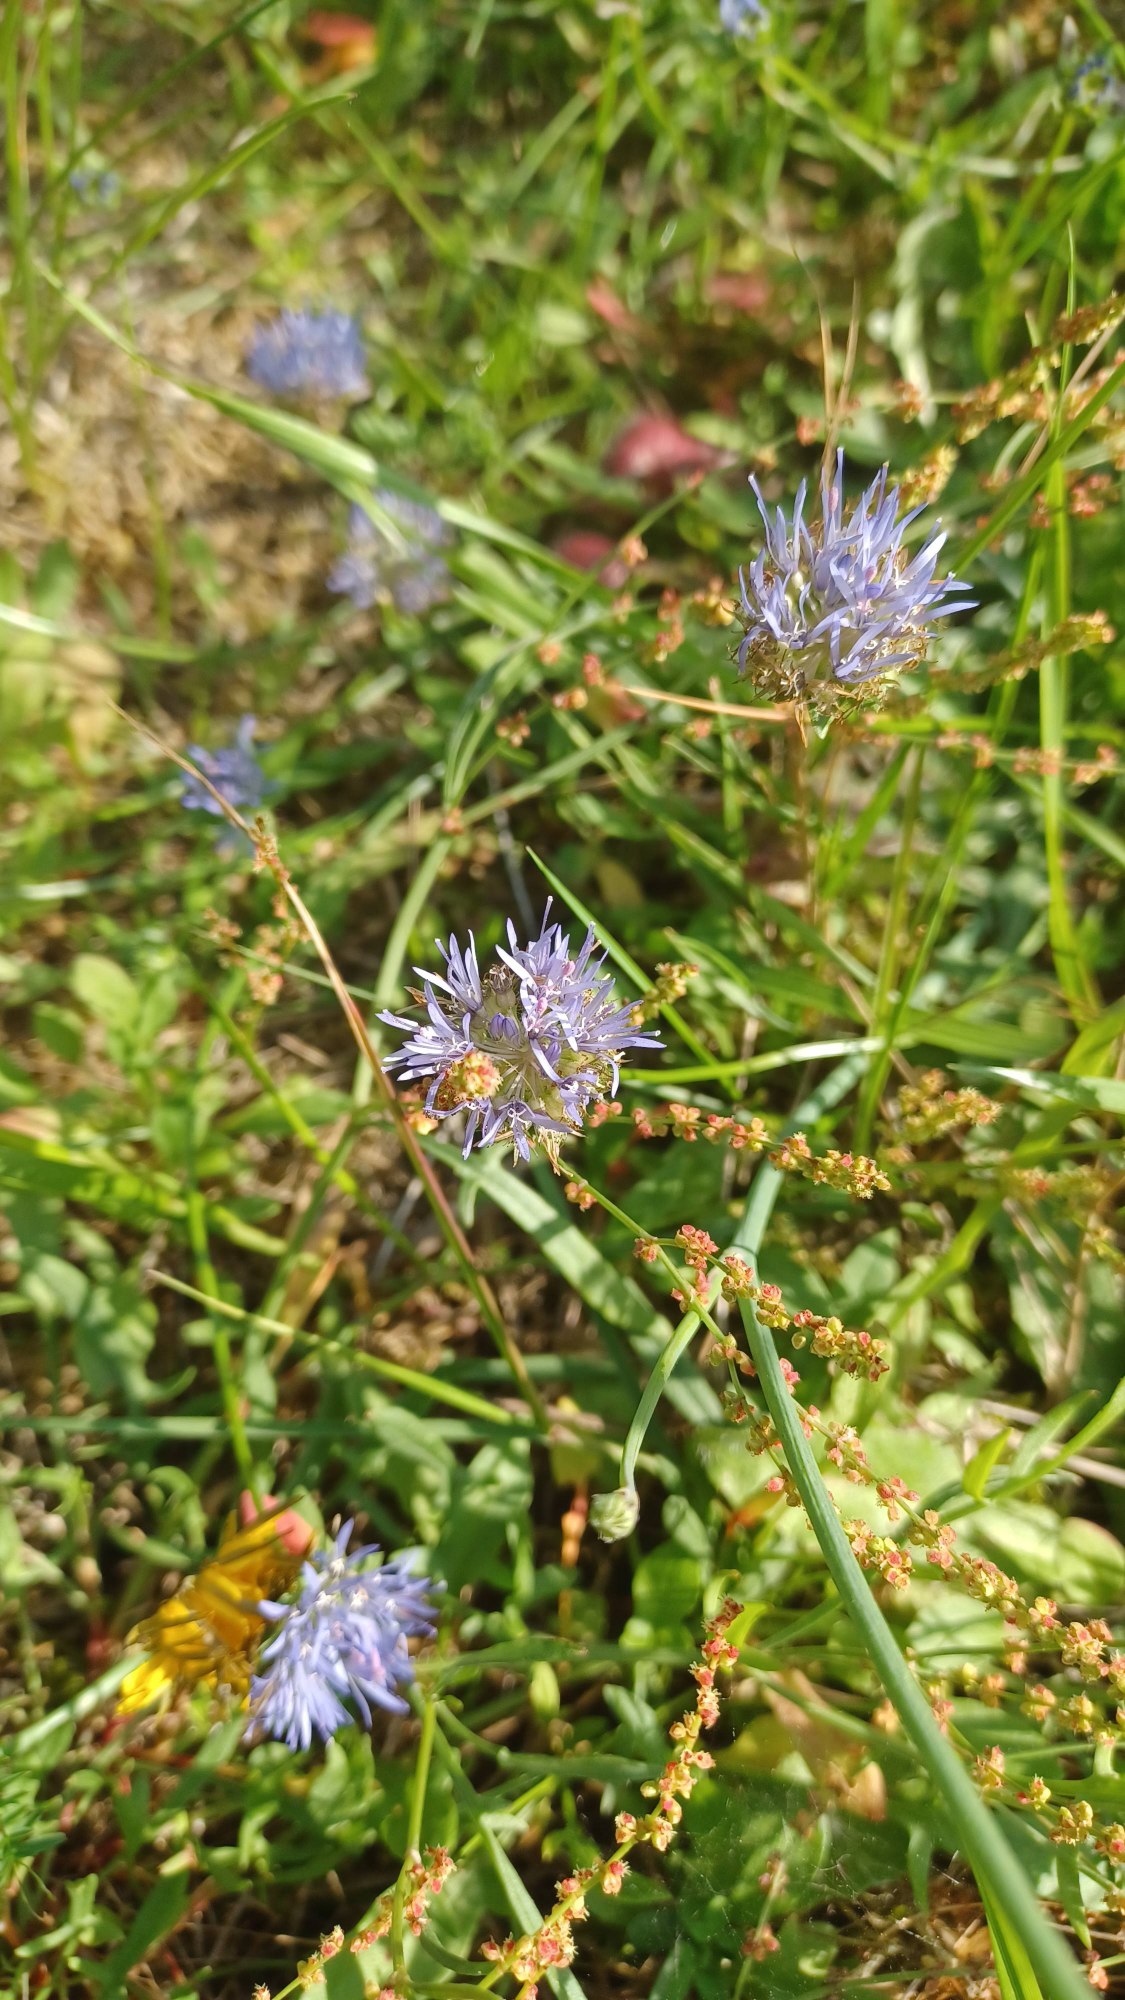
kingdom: Plantae
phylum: Tracheophyta
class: Magnoliopsida
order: Asterales
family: Campanulaceae
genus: Jasione
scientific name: Jasione montana
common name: Blåmunke
